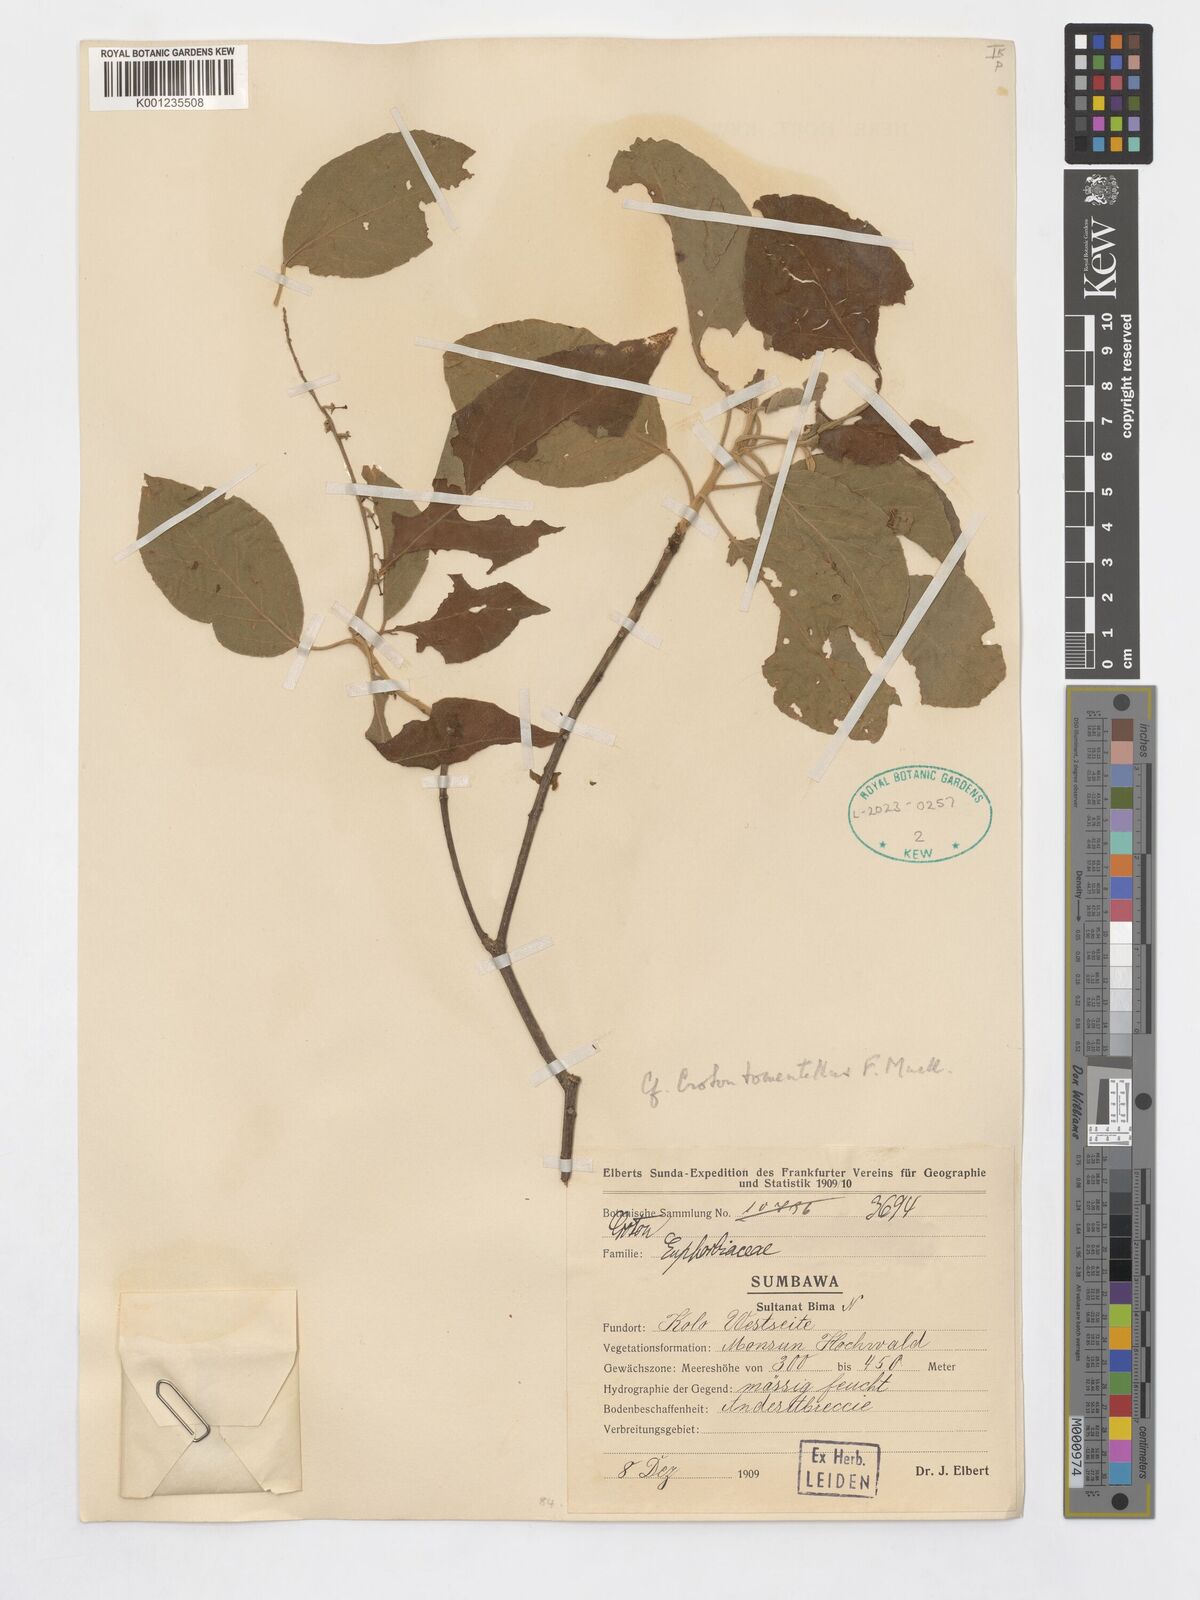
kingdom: Plantae
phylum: Tracheophyta
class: Magnoliopsida
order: Malpighiales
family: Euphorbiaceae
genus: Croton
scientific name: Croton tomentellus
